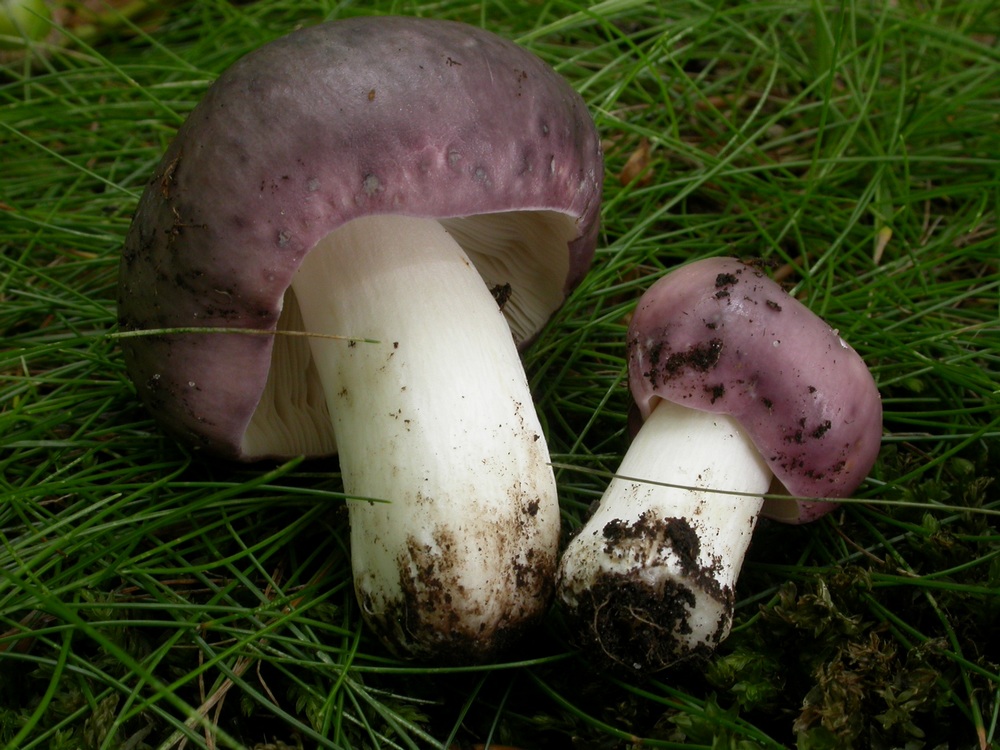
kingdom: Fungi
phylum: Basidiomycota
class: Agaricomycetes
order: Russulales
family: Russulaceae
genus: Russula
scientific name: Russula cyanoxantha
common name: broget skørhat
